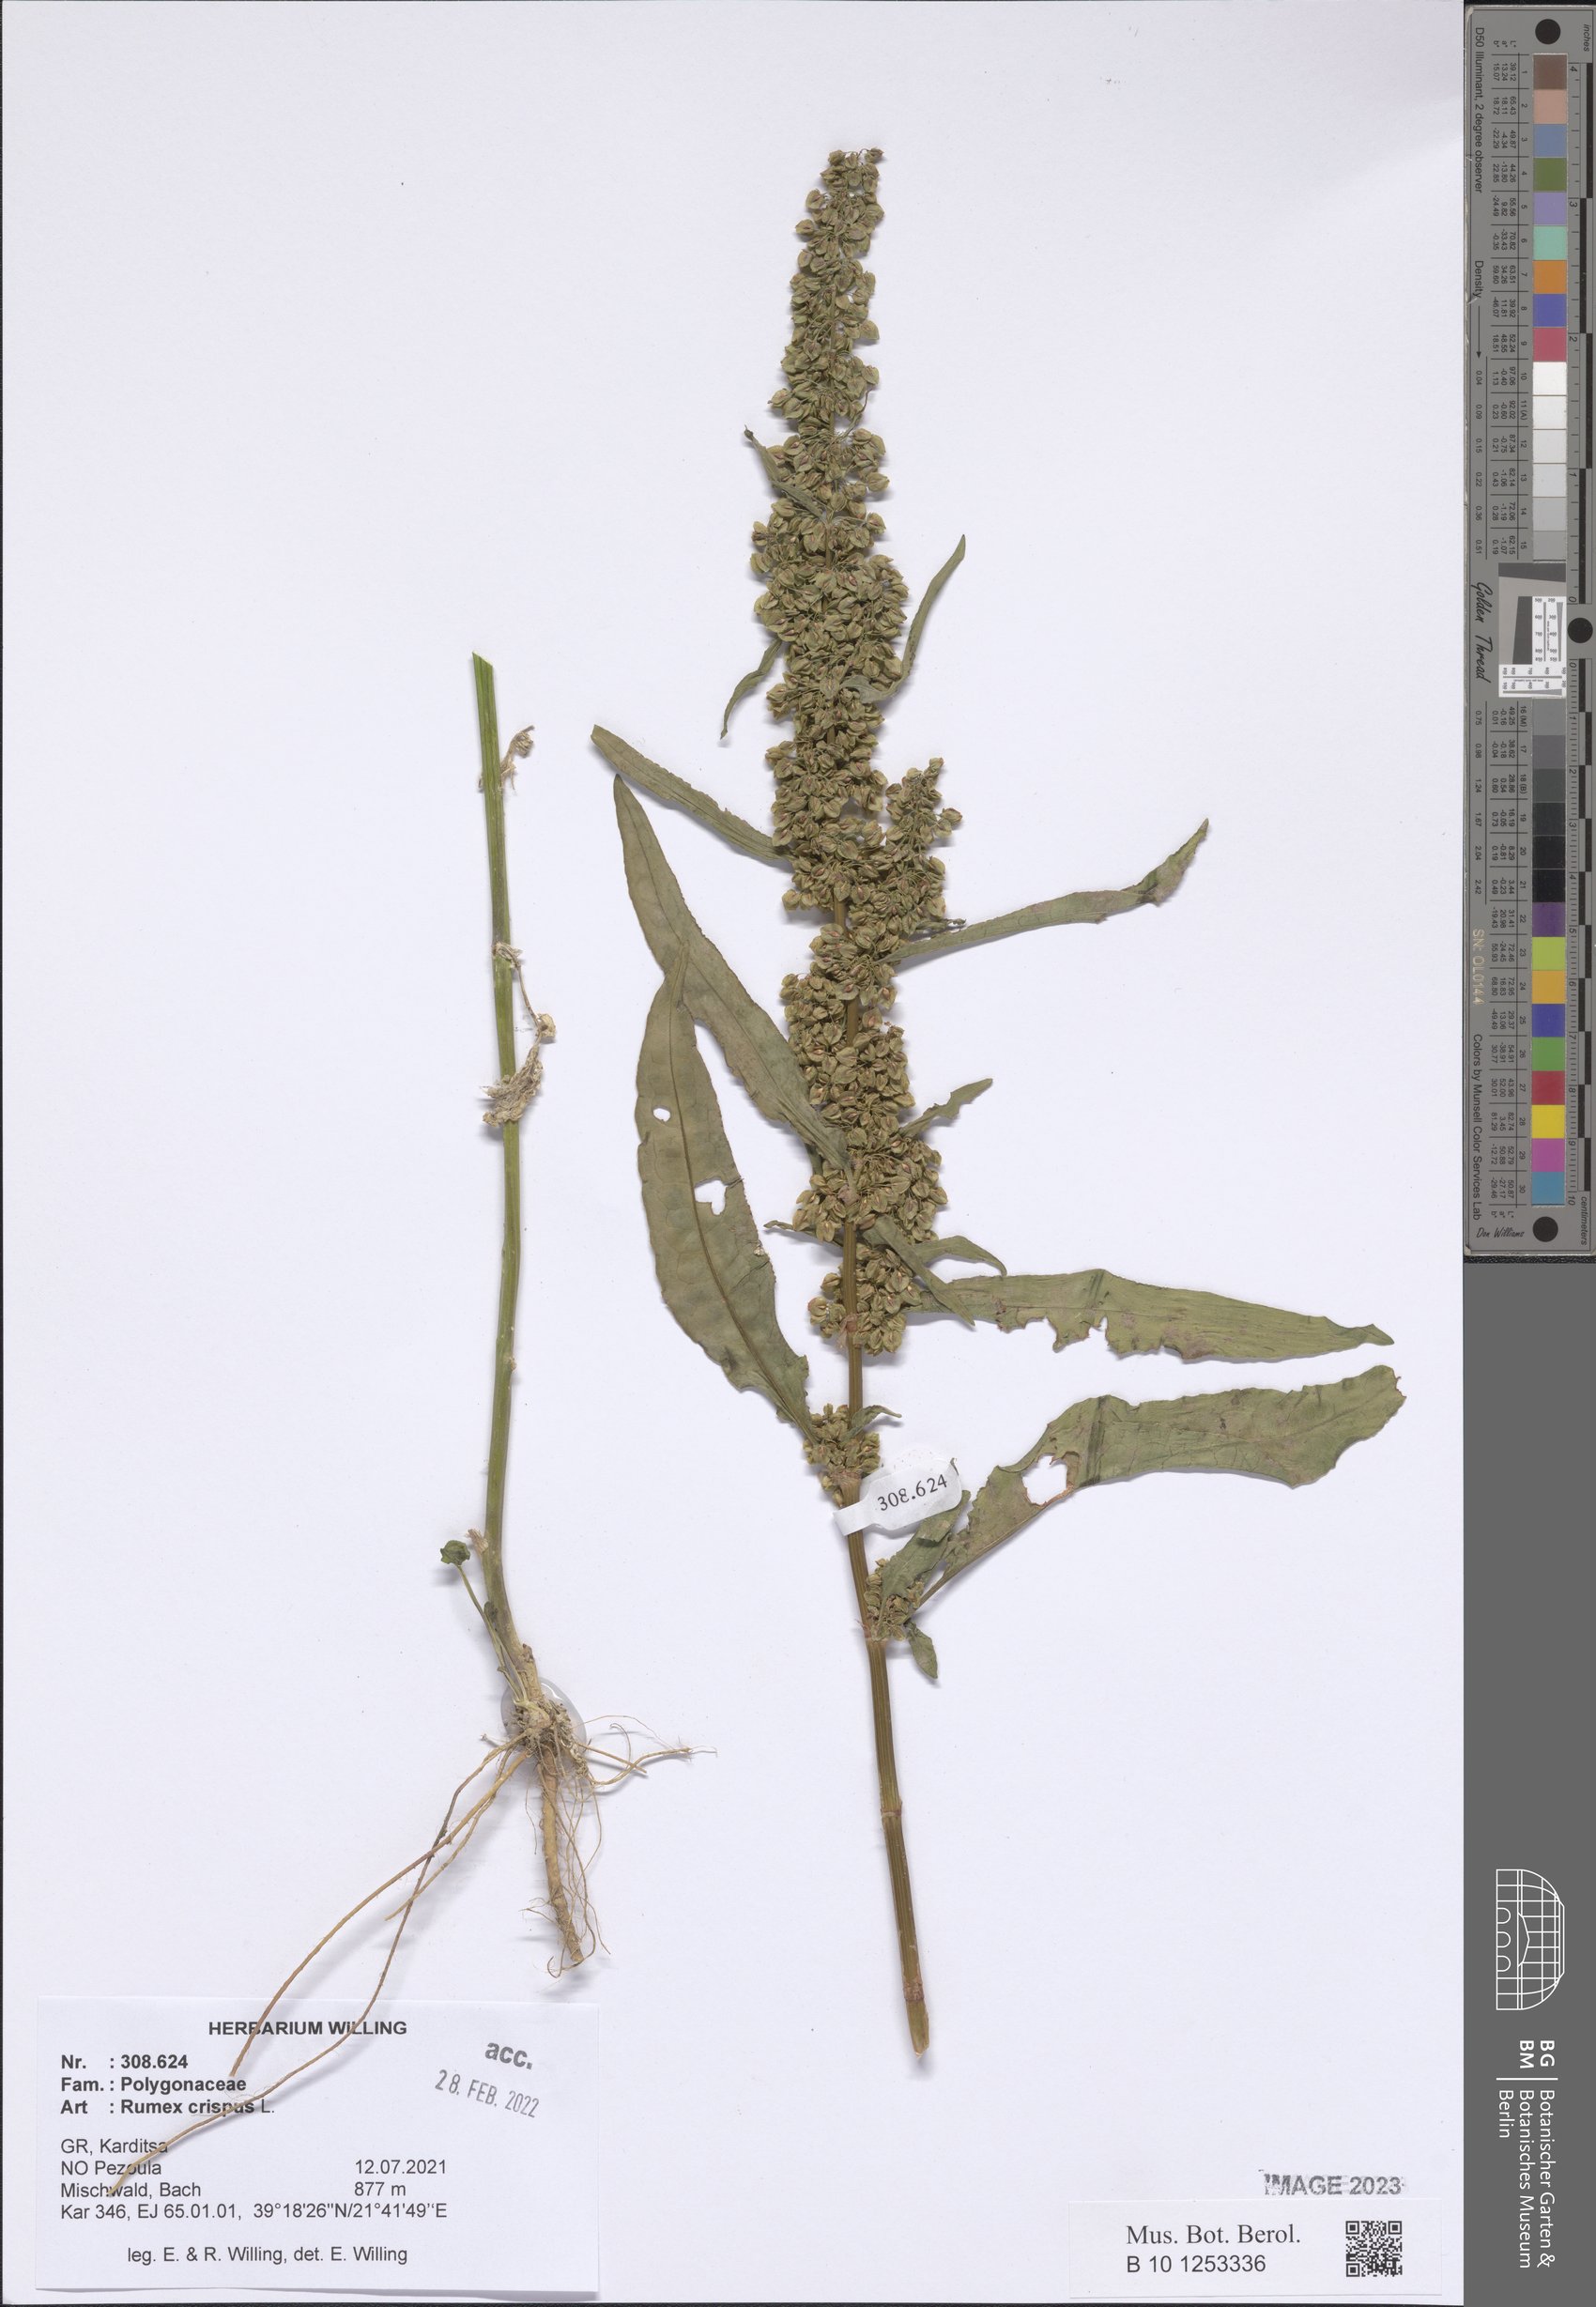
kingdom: Plantae
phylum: Tracheophyta
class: Magnoliopsida
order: Caryophyllales
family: Polygonaceae
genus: Rumex
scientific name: Rumex crispus
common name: Curled dock
